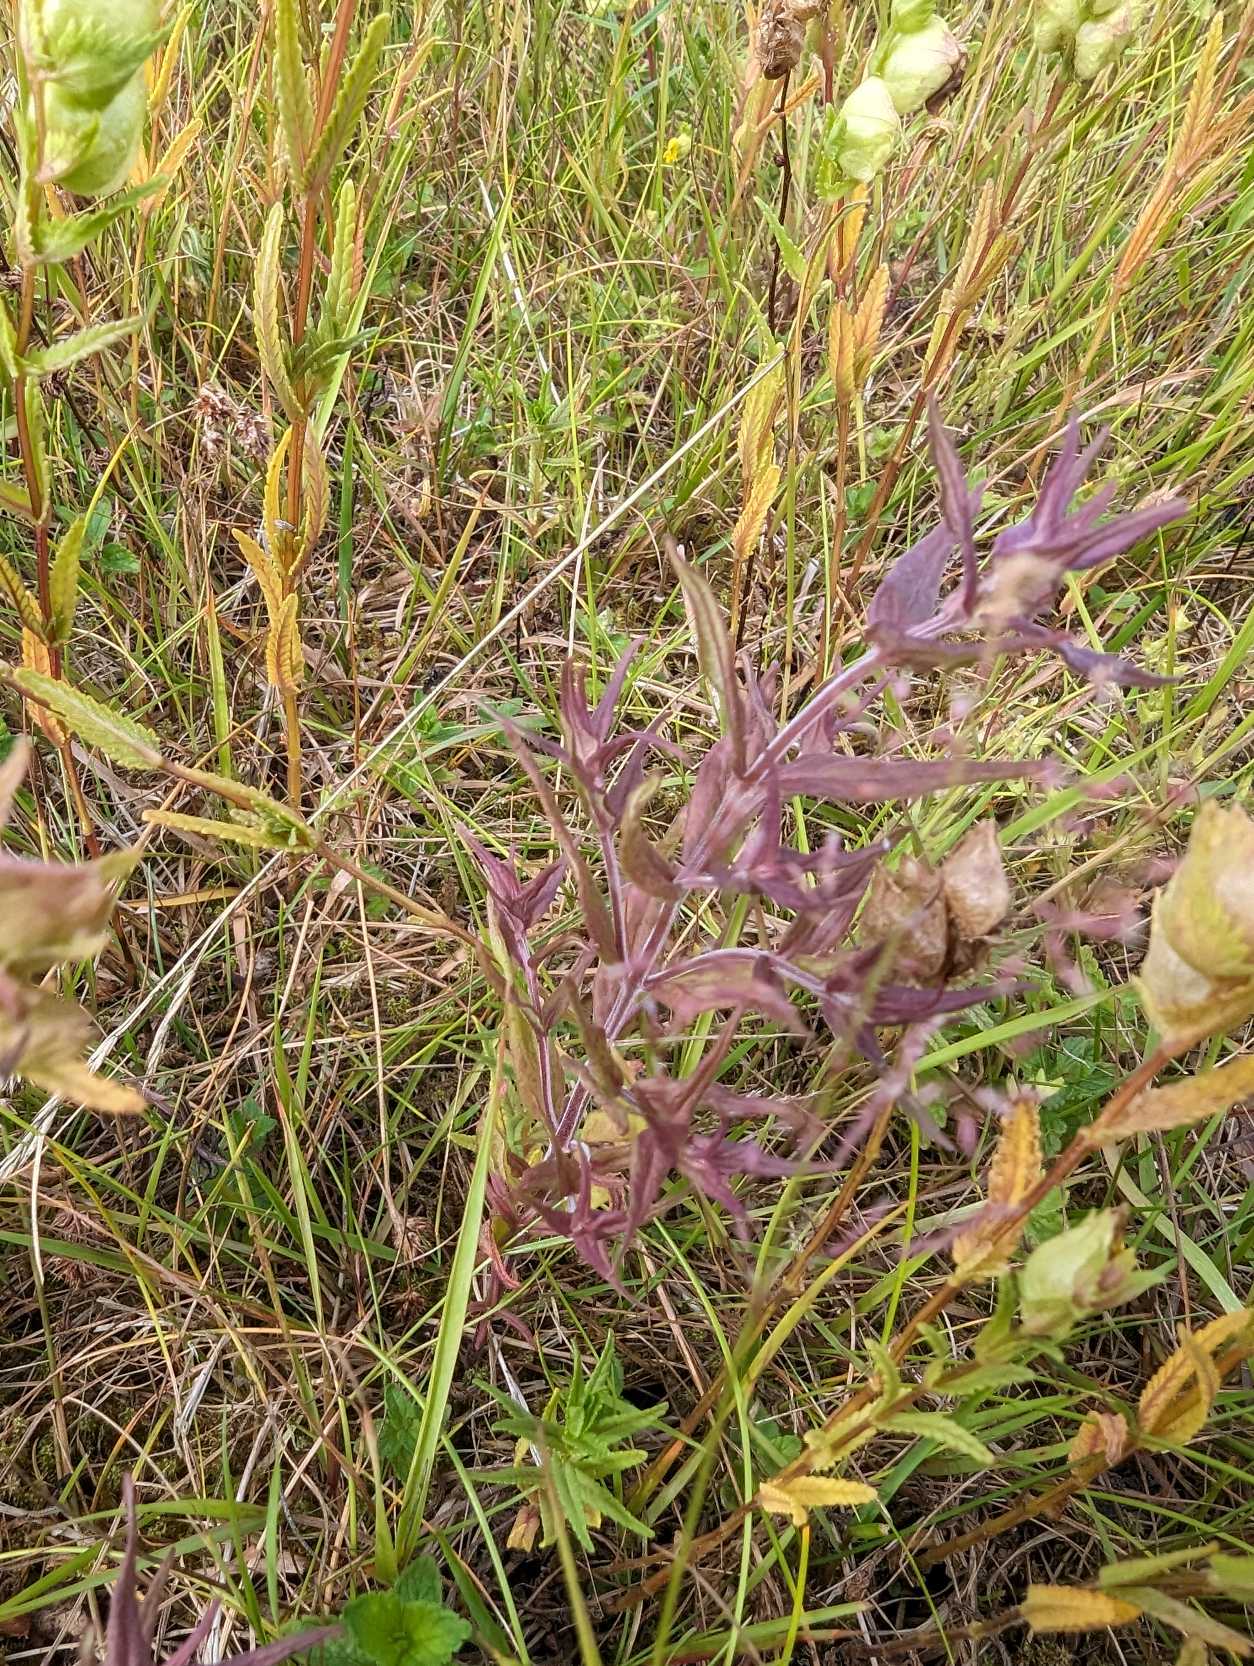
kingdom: Plantae
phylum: Tracheophyta
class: Magnoliopsida
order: Lamiales
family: Orobanchaceae
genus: Odontites
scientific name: Odontites vernus
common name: Mark-rødtop
